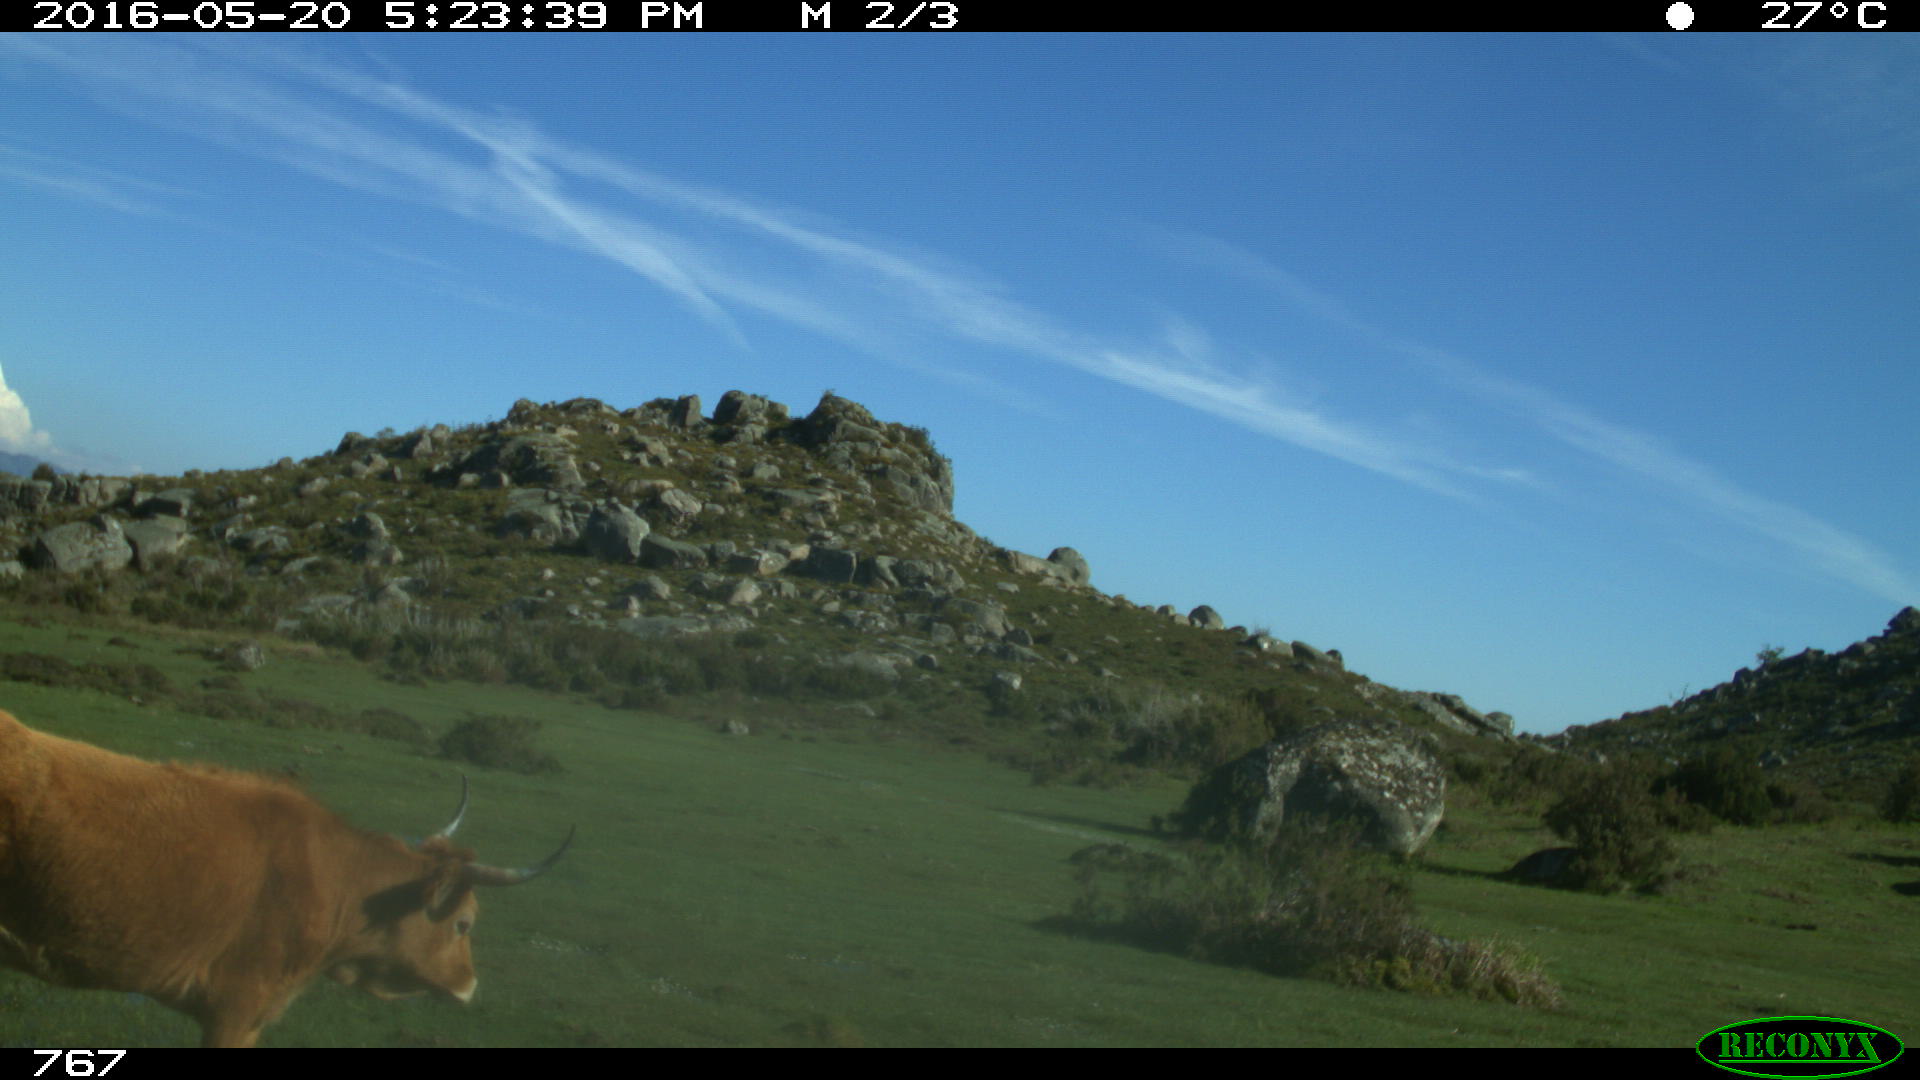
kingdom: Animalia
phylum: Chordata
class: Mammalia
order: Artiodactyla
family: Bovidae
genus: Bos
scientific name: Bos taurus
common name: Domesticated cattle
